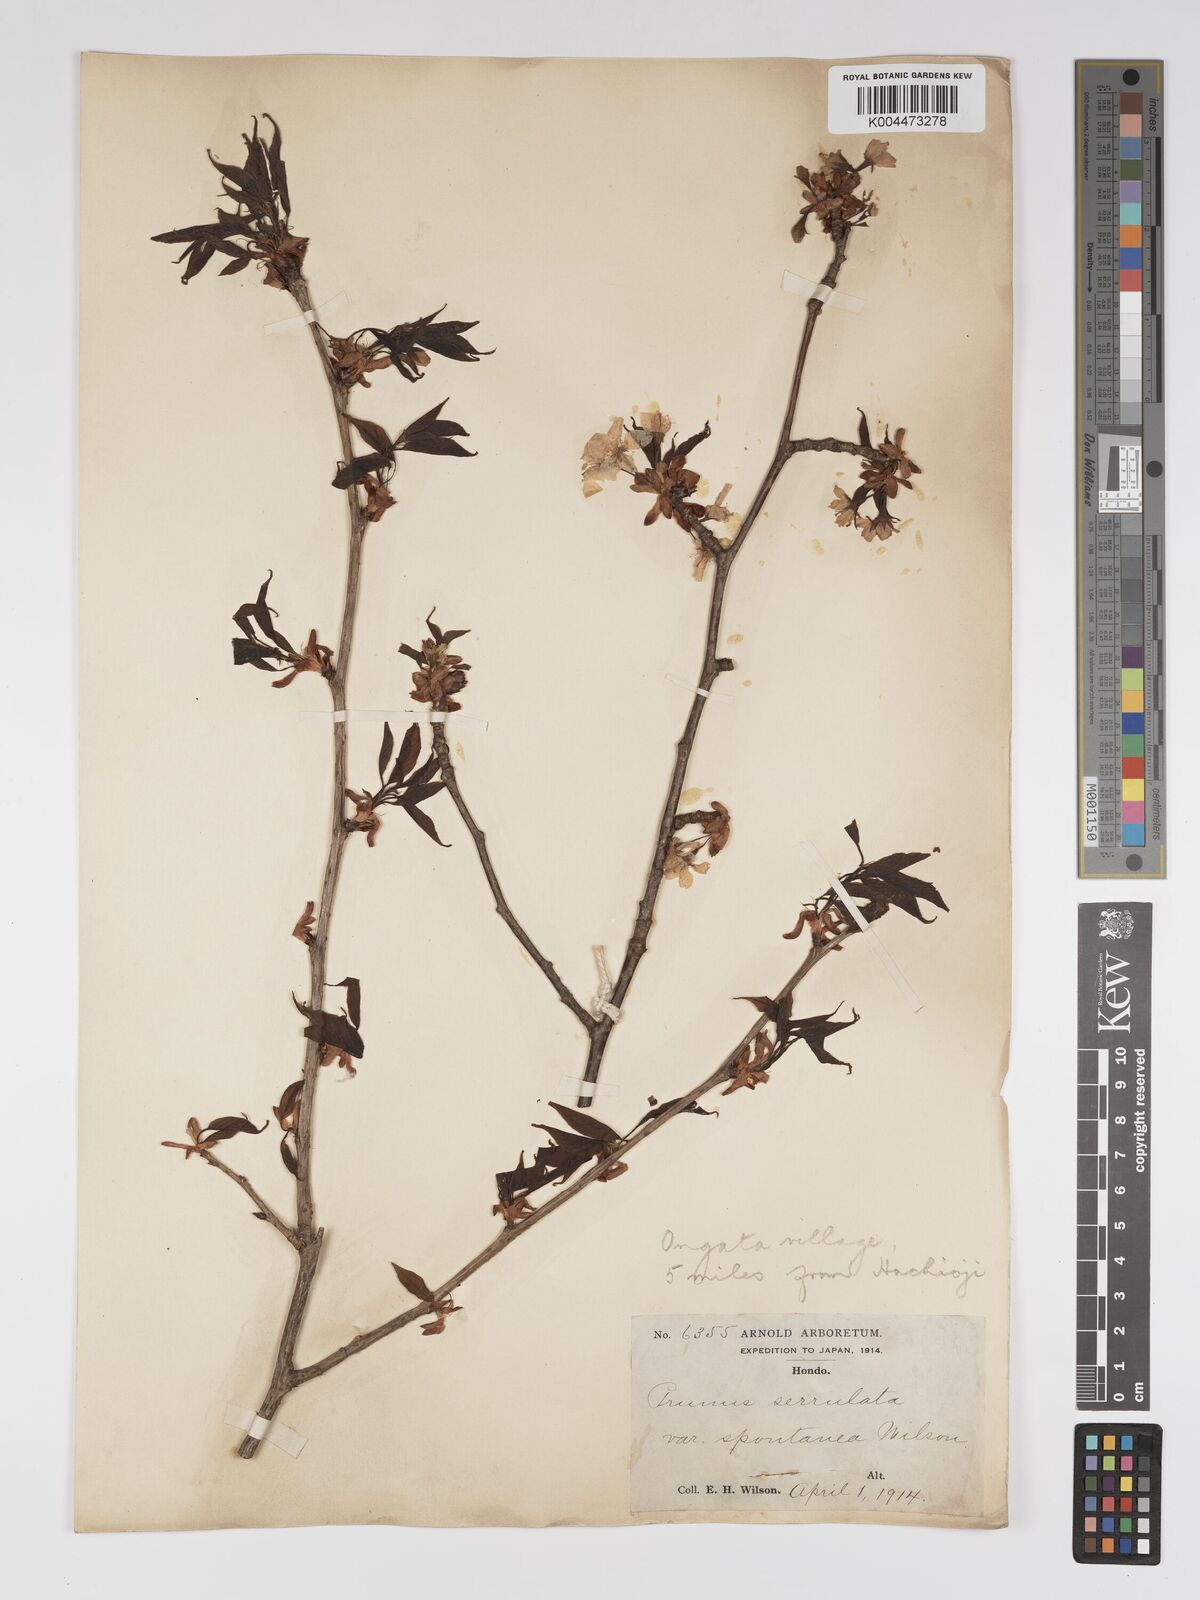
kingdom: Plantae
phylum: Tracheophyta
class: Magnoliopsida
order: Rosales
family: Rosaceae
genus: Prunus
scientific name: Prunus serrulata
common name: Japanese cherry
